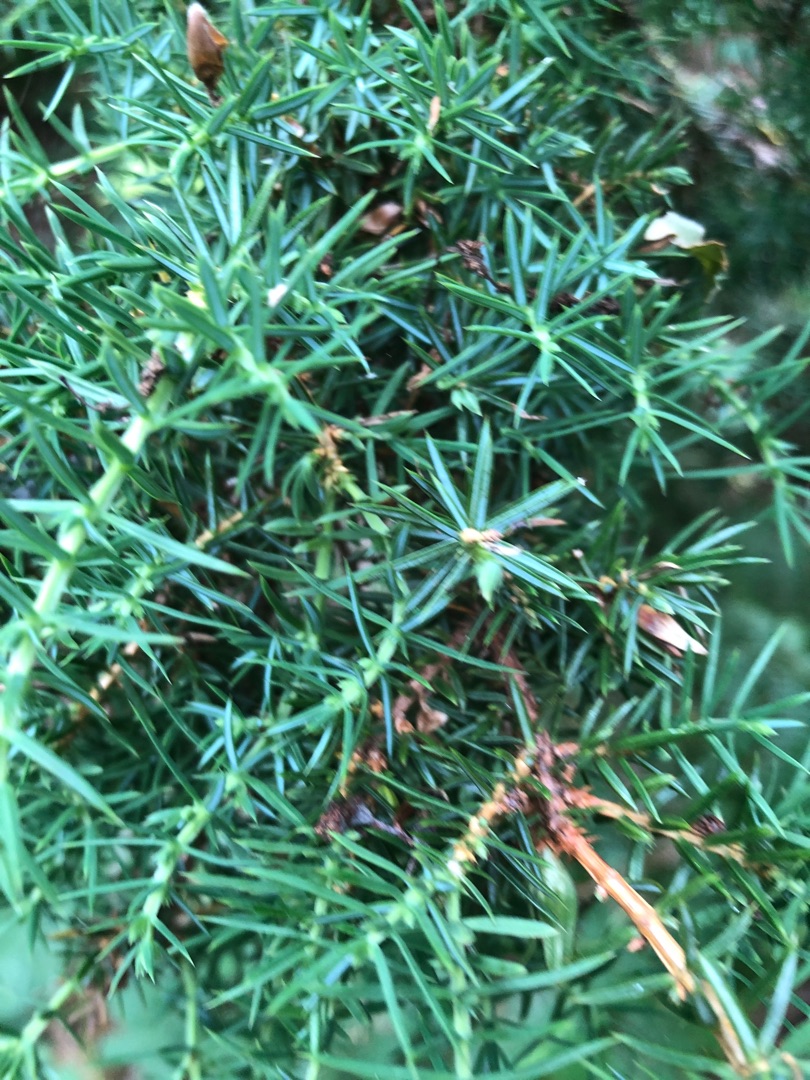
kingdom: Plantae
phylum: Tracheophyta
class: Pinopsida
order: Pinales
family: Cupressaceae
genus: Juniperus
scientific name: Juniperus communis
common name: Almindelig ene
